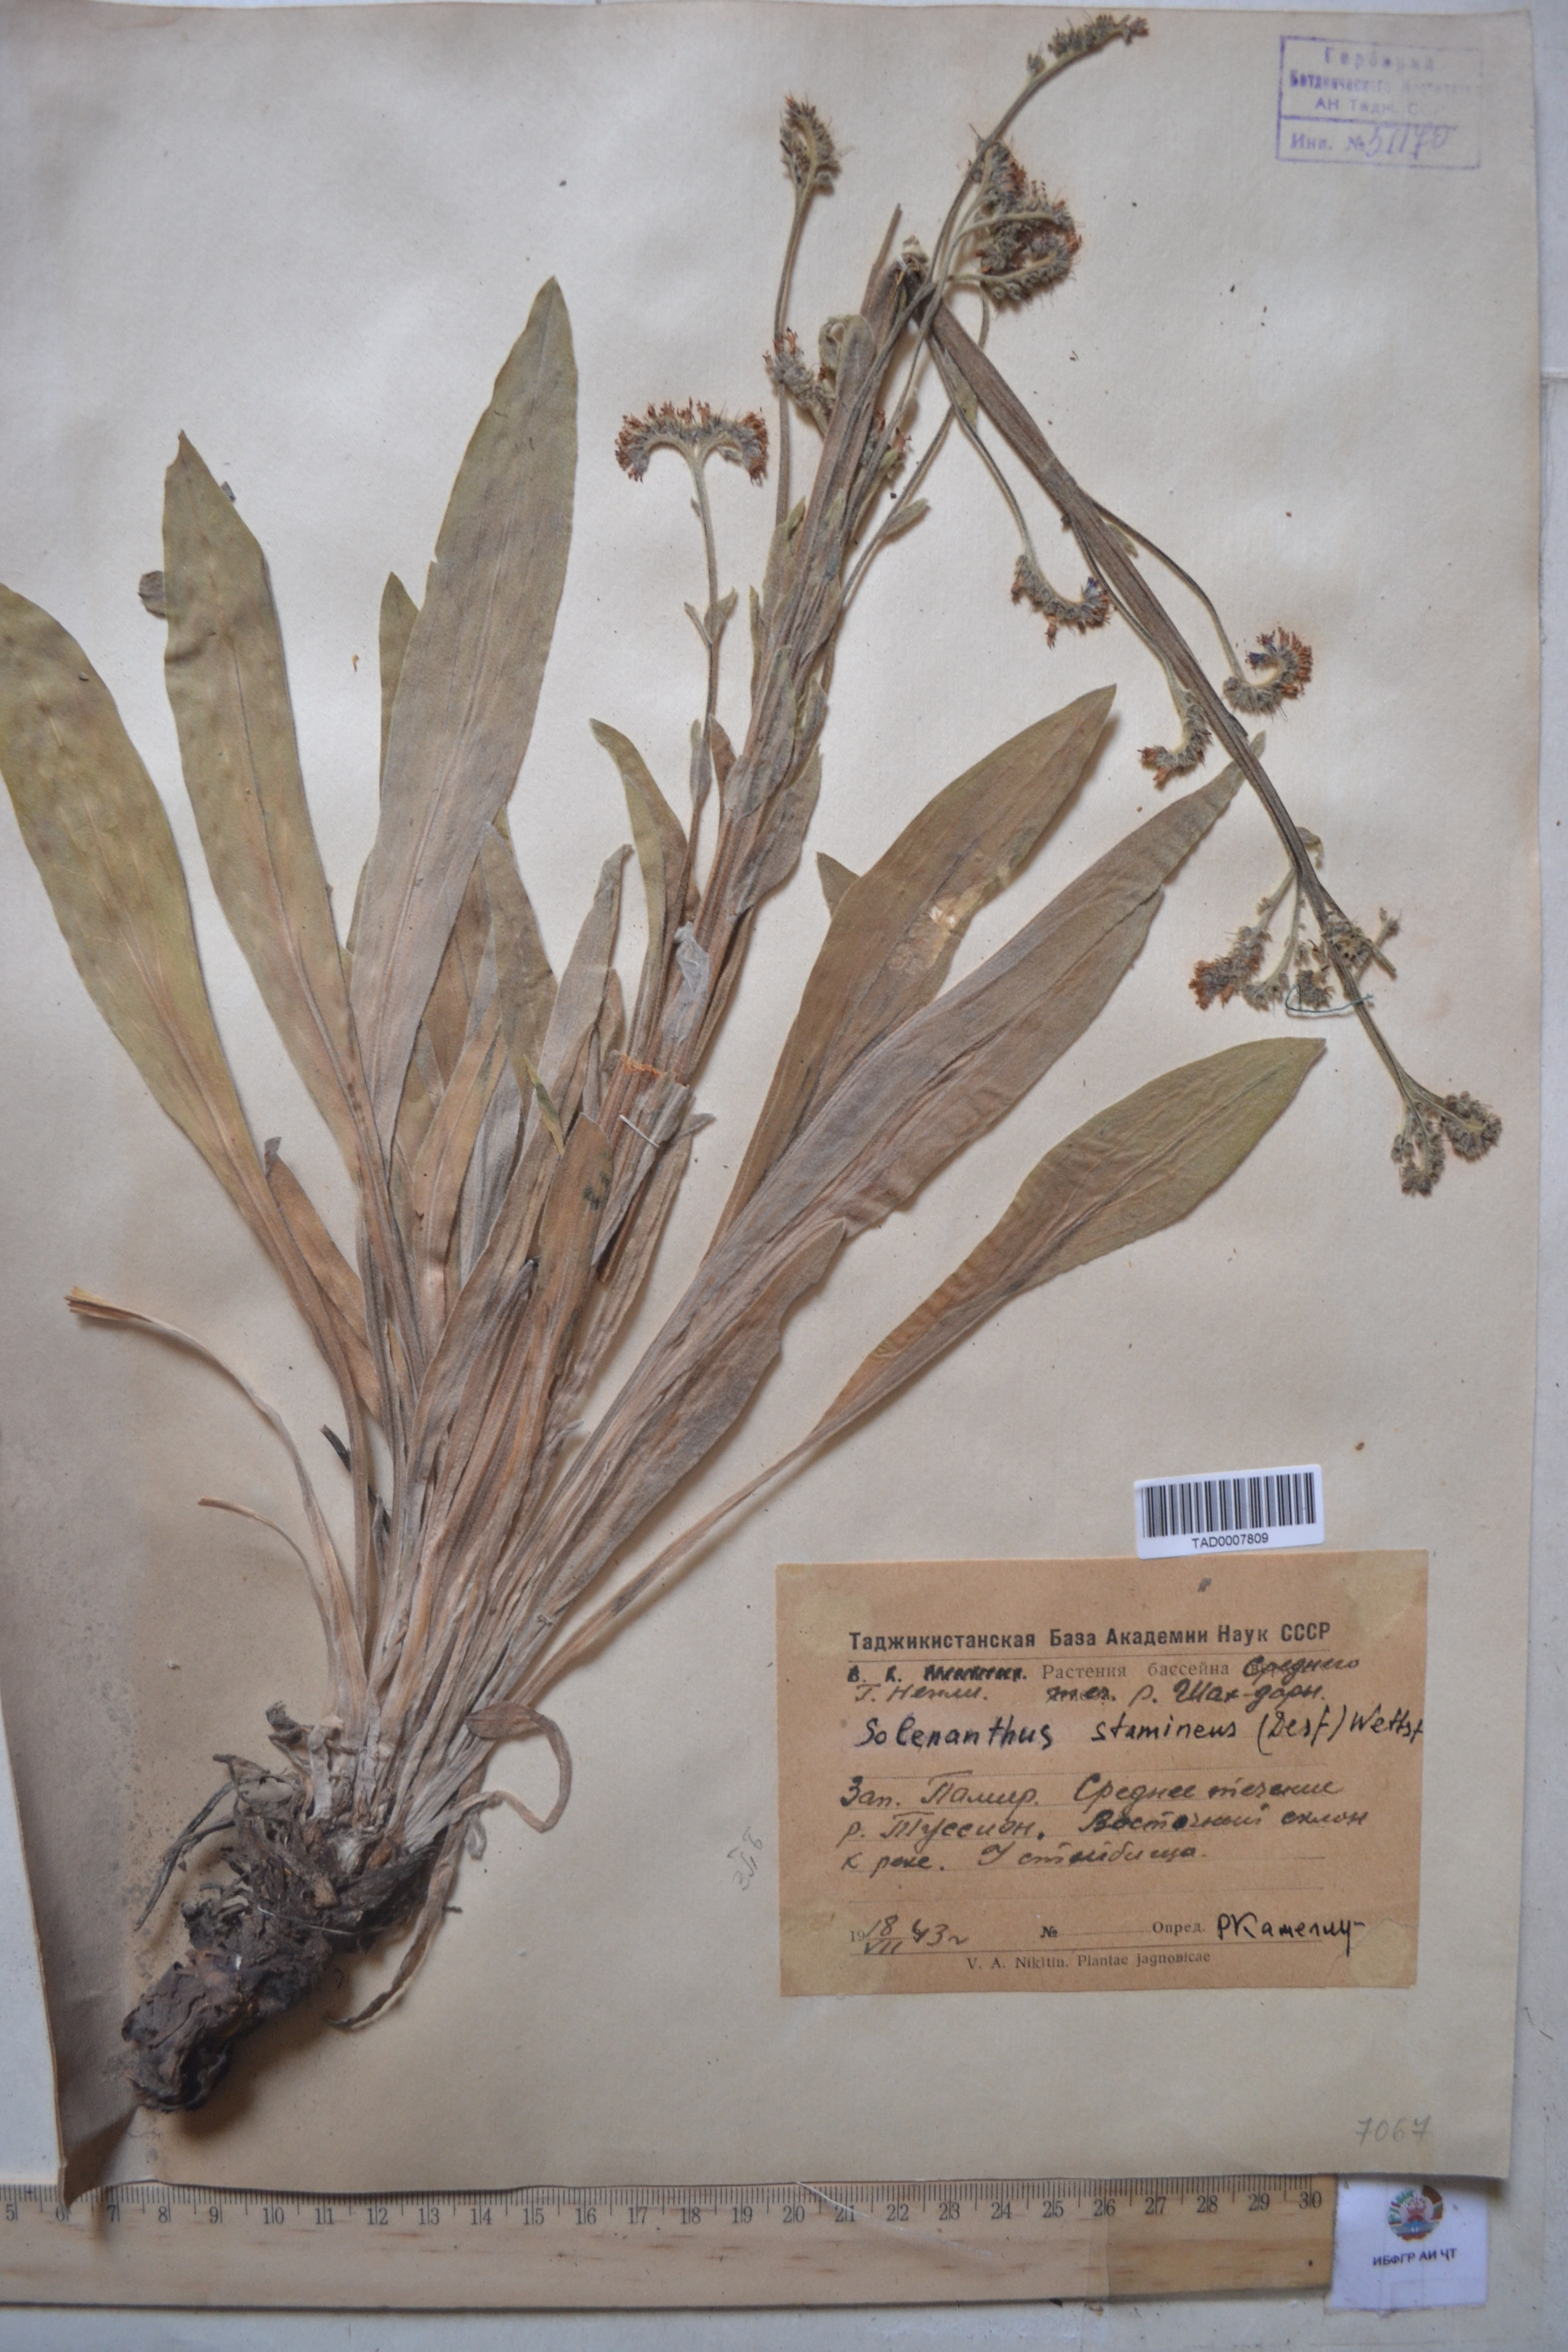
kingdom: Plantae
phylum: Tracheophyta
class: Magnoliopsida
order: Boraginales
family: Boraginaceae
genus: Solenanthus
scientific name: Solenanthus stamineus
